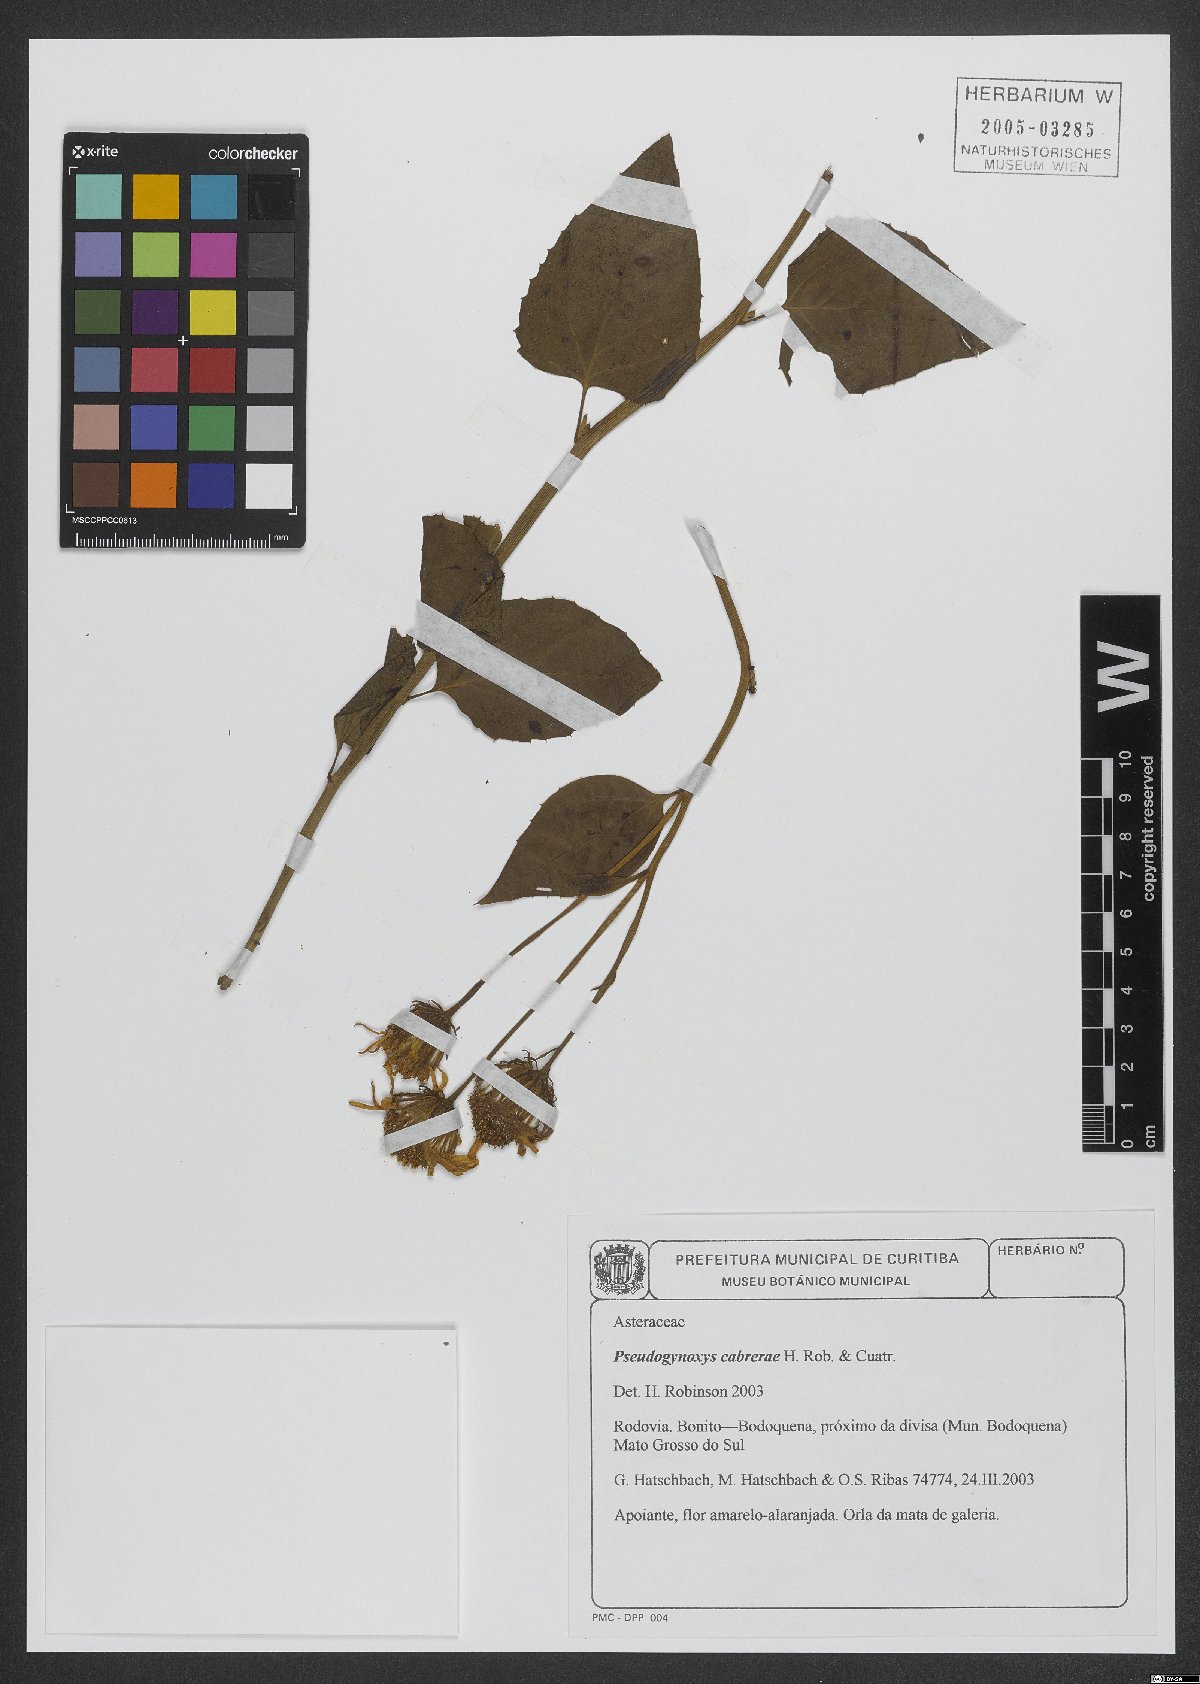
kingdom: Plantae
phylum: Tracheophyta
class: Magnoliopsida
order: Asterales
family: Asteraceae
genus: Pseudogynoxys
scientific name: Pseudogynoxys cabrerae
